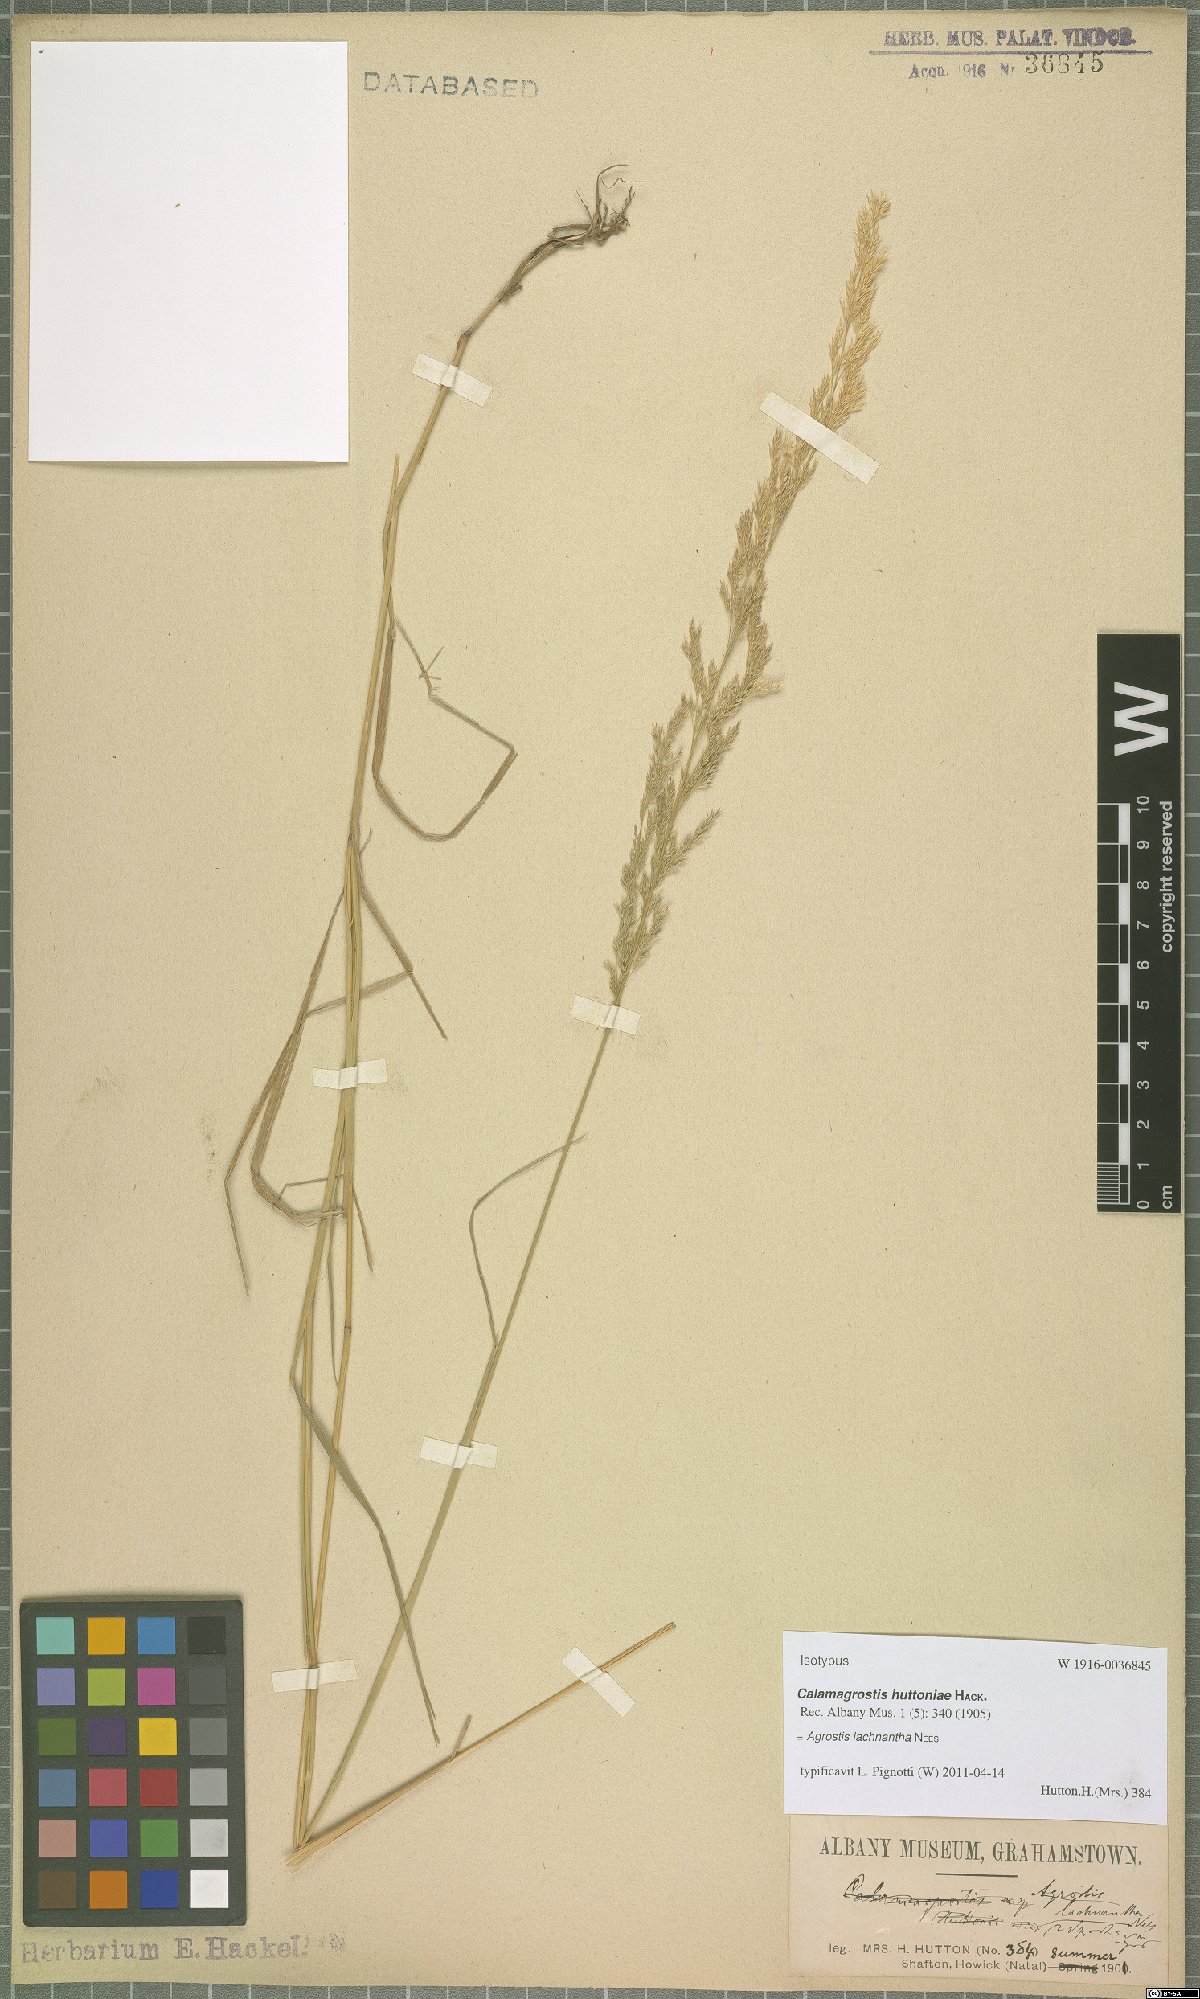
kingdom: Plantae
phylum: Tracheophyta
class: Liliopsida
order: Poales
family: Poaceae
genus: Lachnagrostis
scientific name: Lachnagrostis lachnantha
